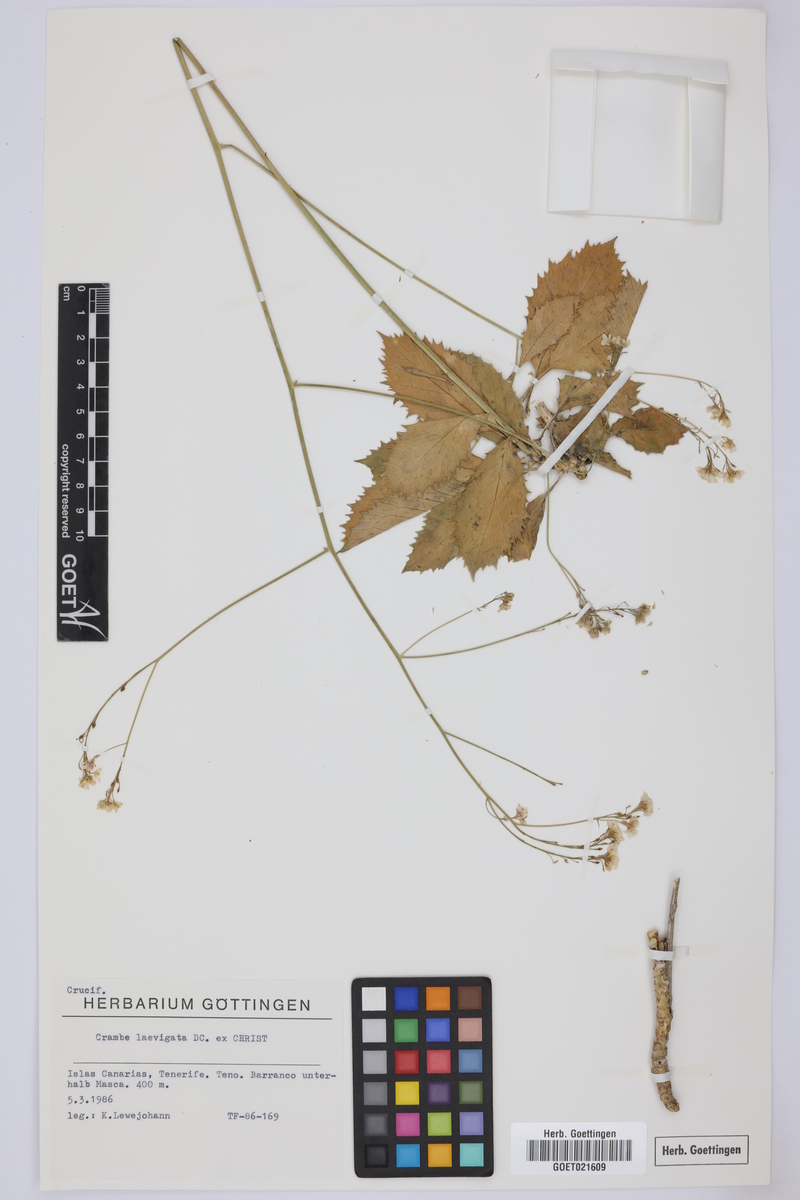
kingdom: Plantae
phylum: Tracheophyta
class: Magnoliopsida
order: Brassicales
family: Brassicaceae
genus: Crambe
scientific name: Crambe laevigata
